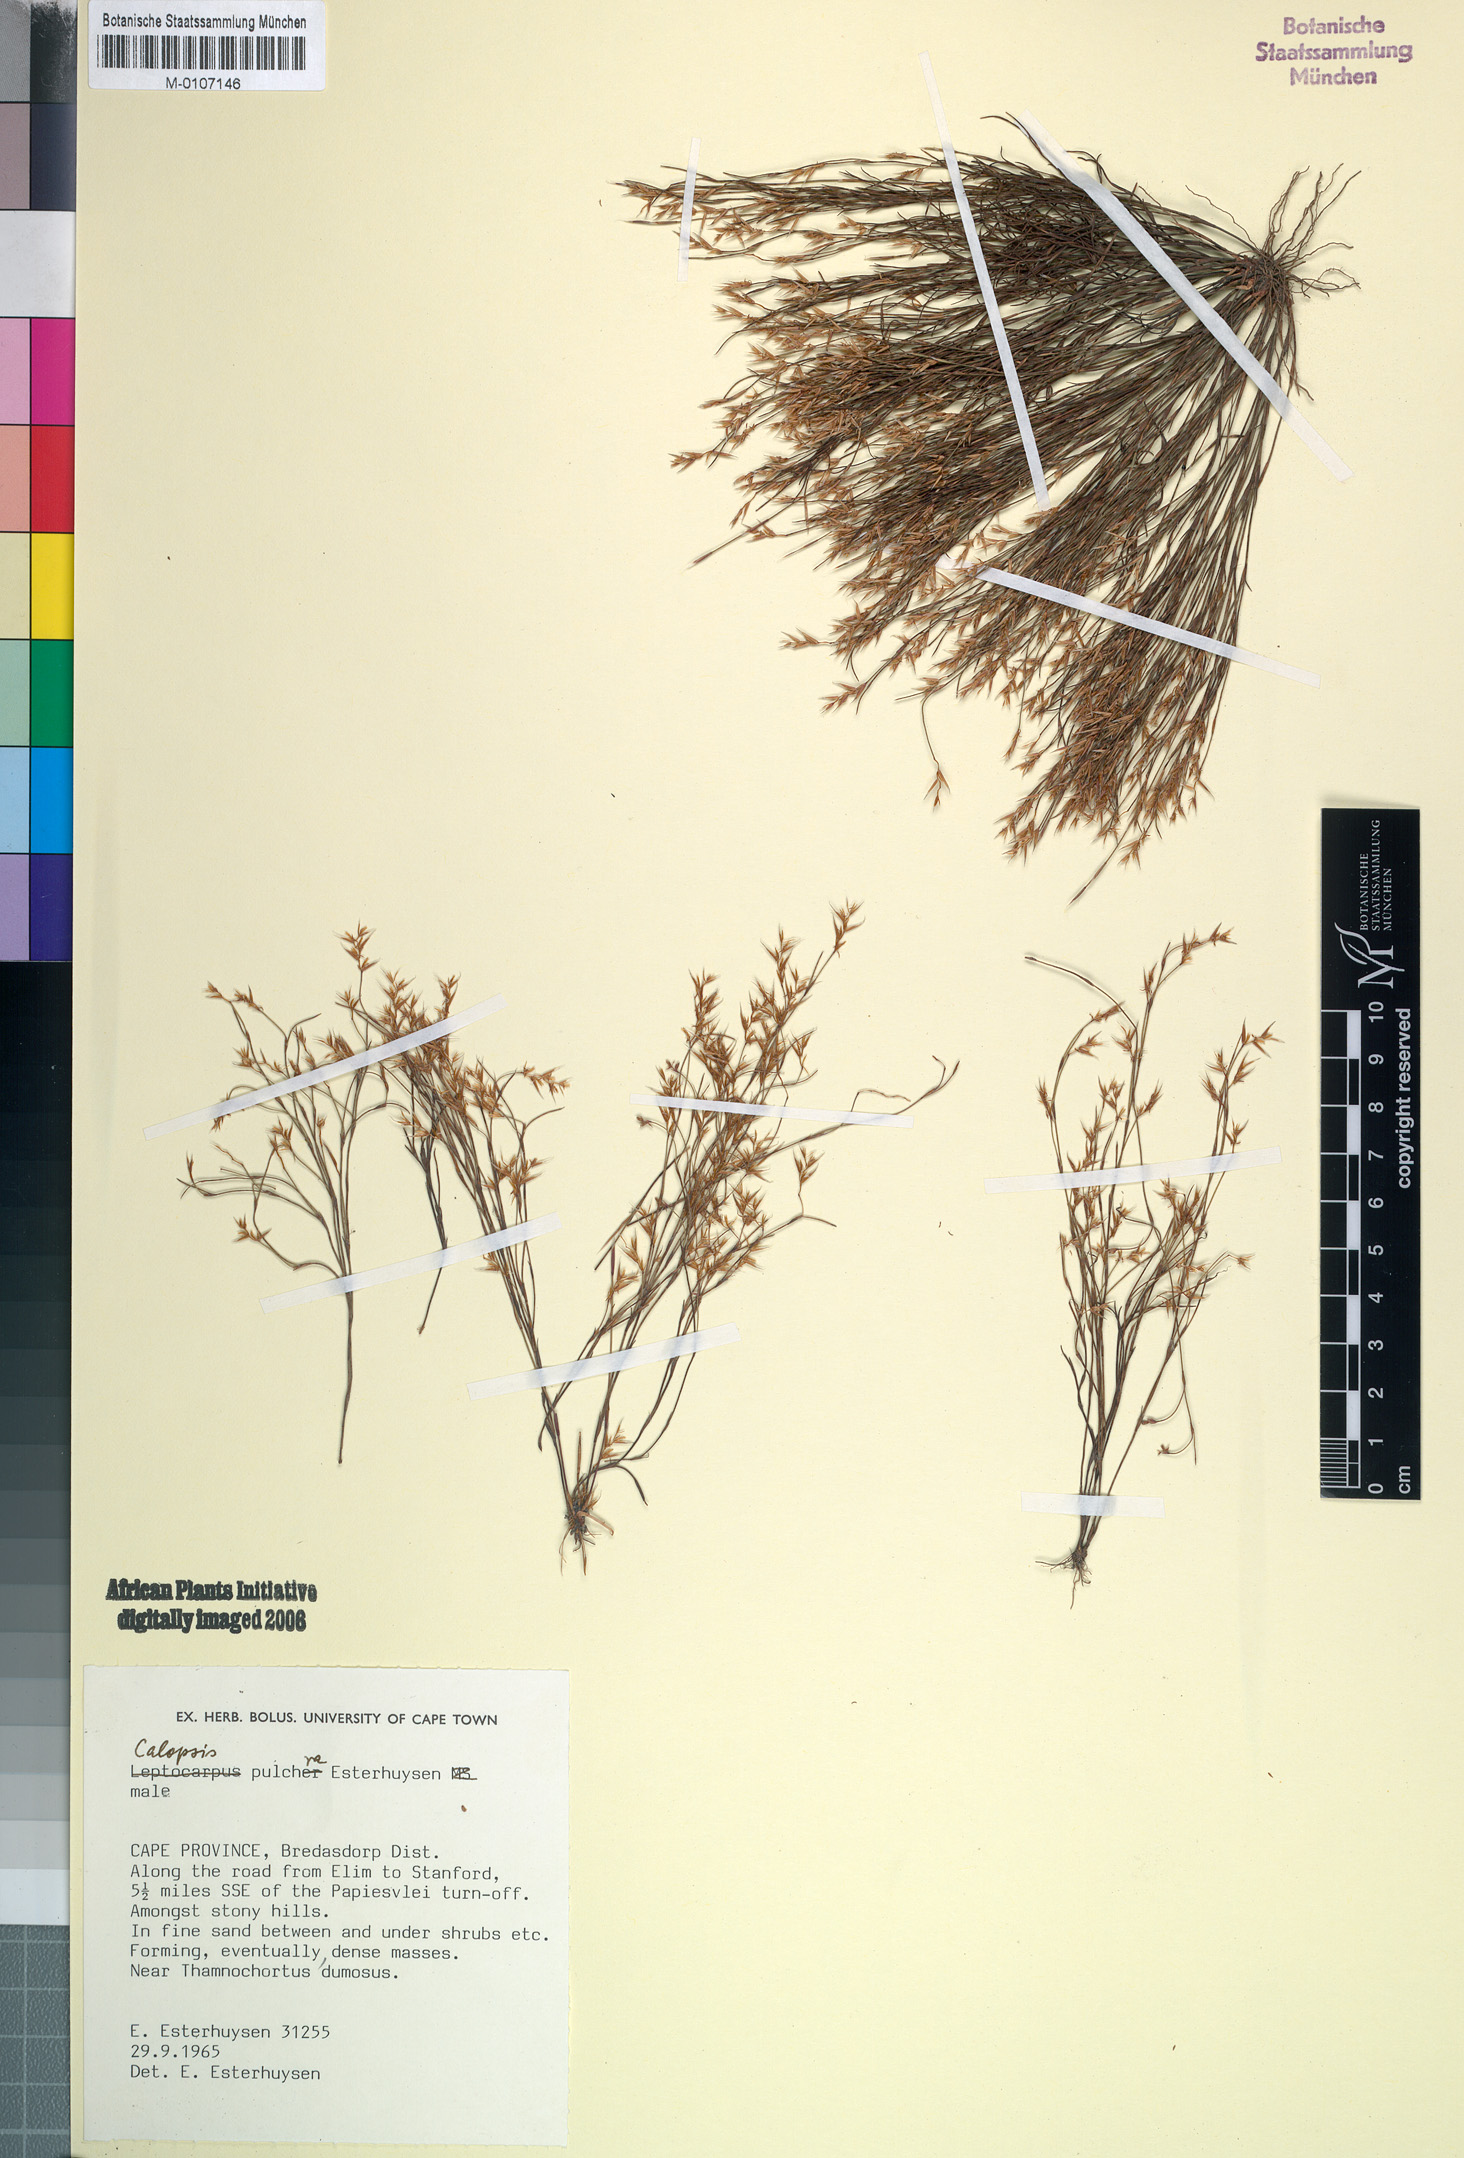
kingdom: Plantae
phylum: Tracheophyta
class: Liliopsida
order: Poales
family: Restionaceae
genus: Restio
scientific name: Restio pulcher
